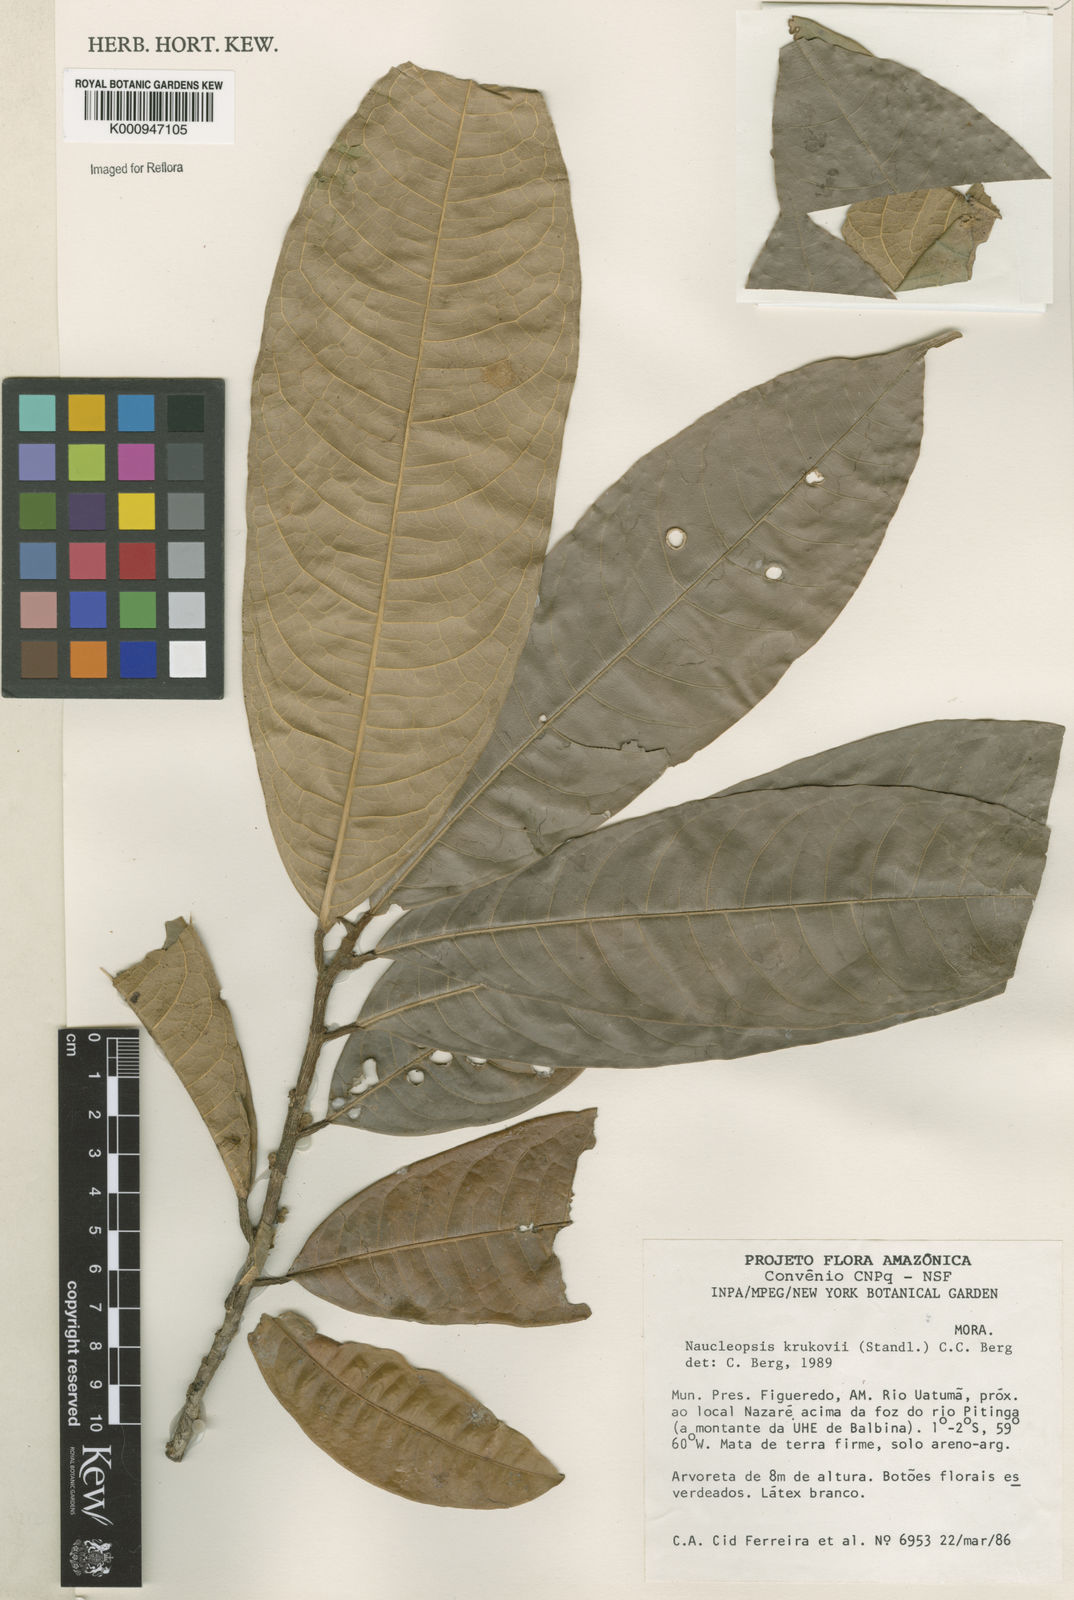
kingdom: Plantae
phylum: Tracheophyta
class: Magnoliopsida
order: Rosales
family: Moraceae
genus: Naucleopsis
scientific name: Naucleopsis krukovii
